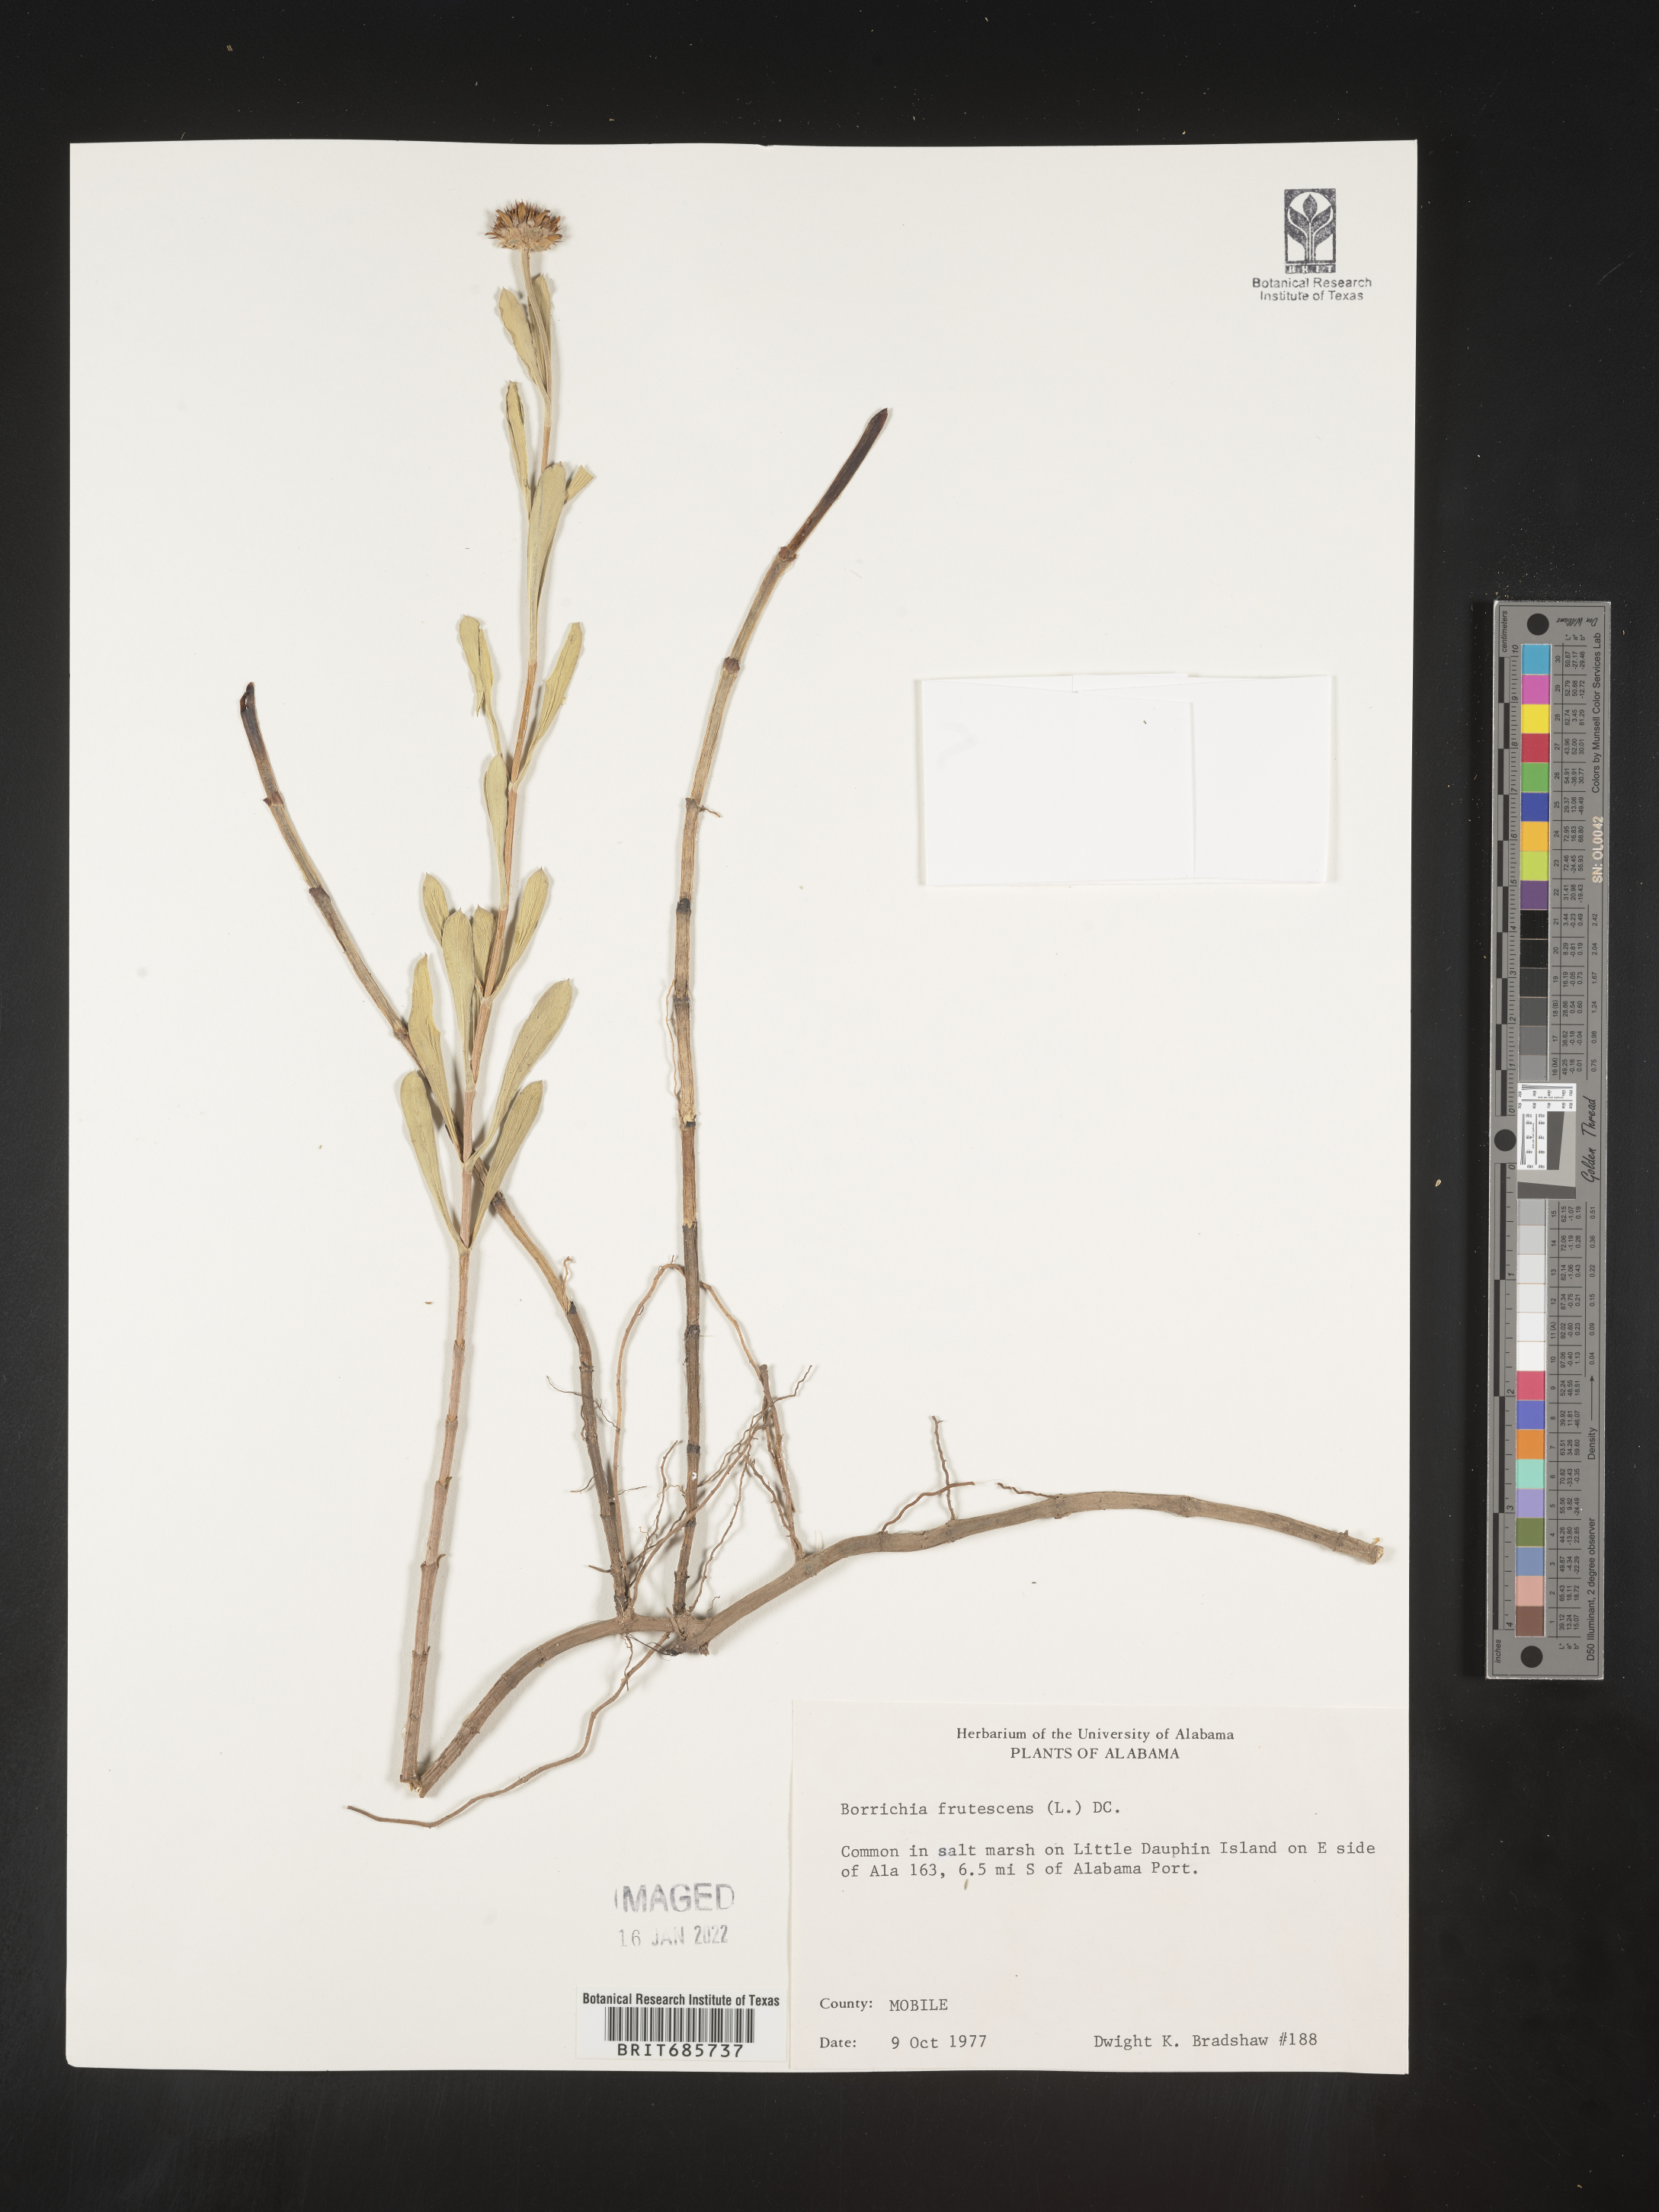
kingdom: Plantae
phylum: Tracheophyta
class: Magnoliopsida
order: Asterales
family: Asteraceae
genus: Borrichia
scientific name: Borrichia frutescens
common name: Sea oxeye
